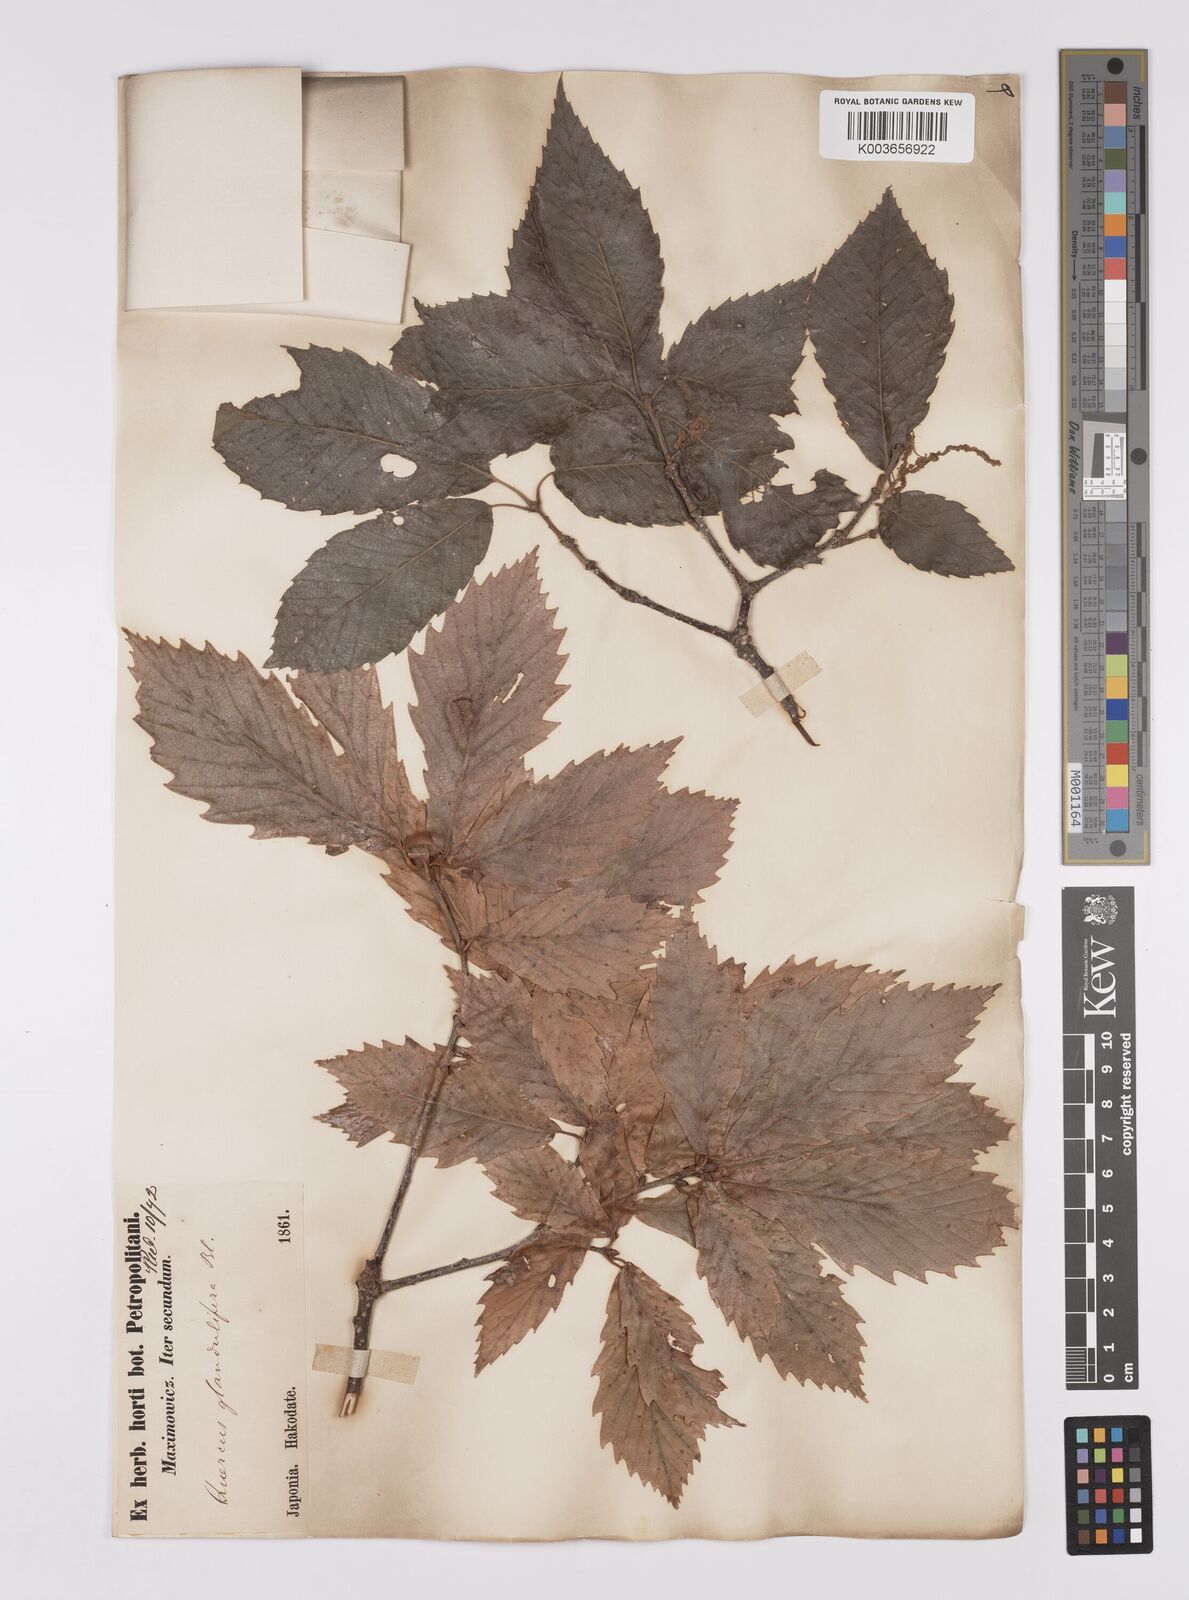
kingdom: Plantae
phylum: Tracheophyta
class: Magnoliopsida
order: Fagales
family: Fagaceae
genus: Quercus
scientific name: Quercus
